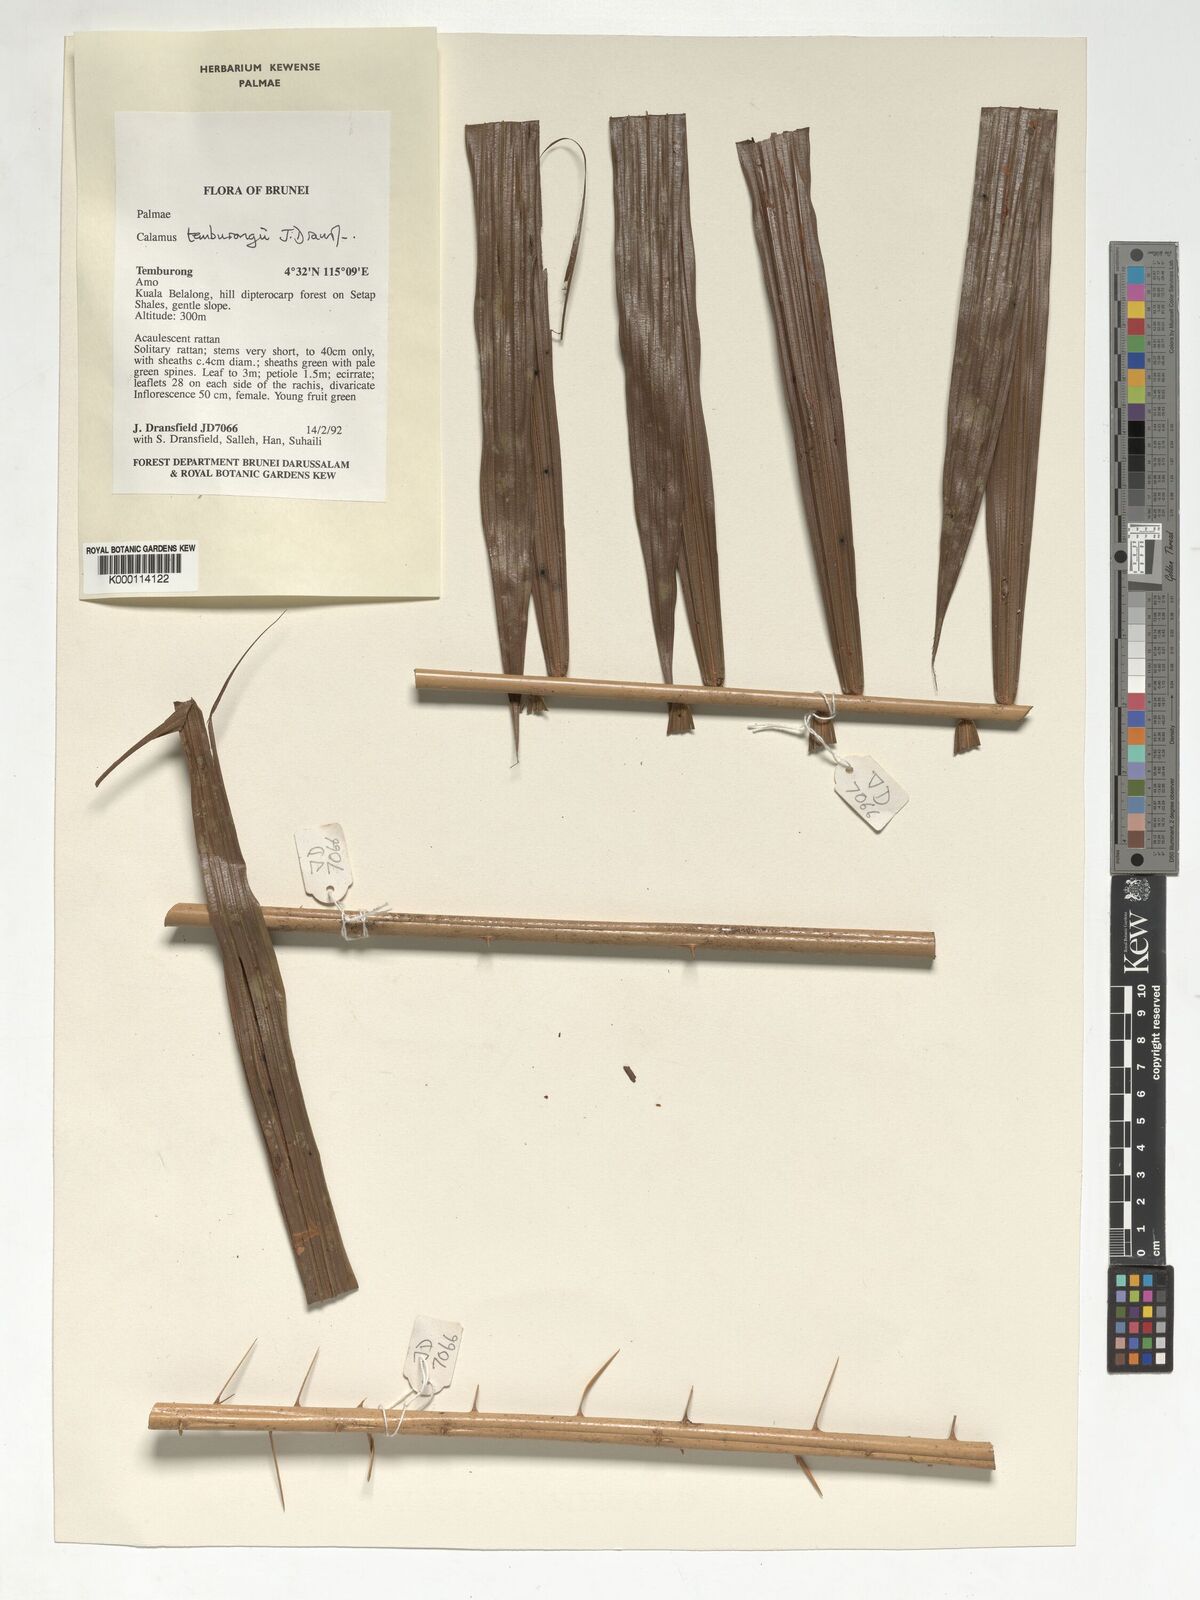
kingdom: Plantae
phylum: Tracheophyta
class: Liliopsida
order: Arecales
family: Arecaceae
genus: Calamus
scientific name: Calamus acanthochlamys
